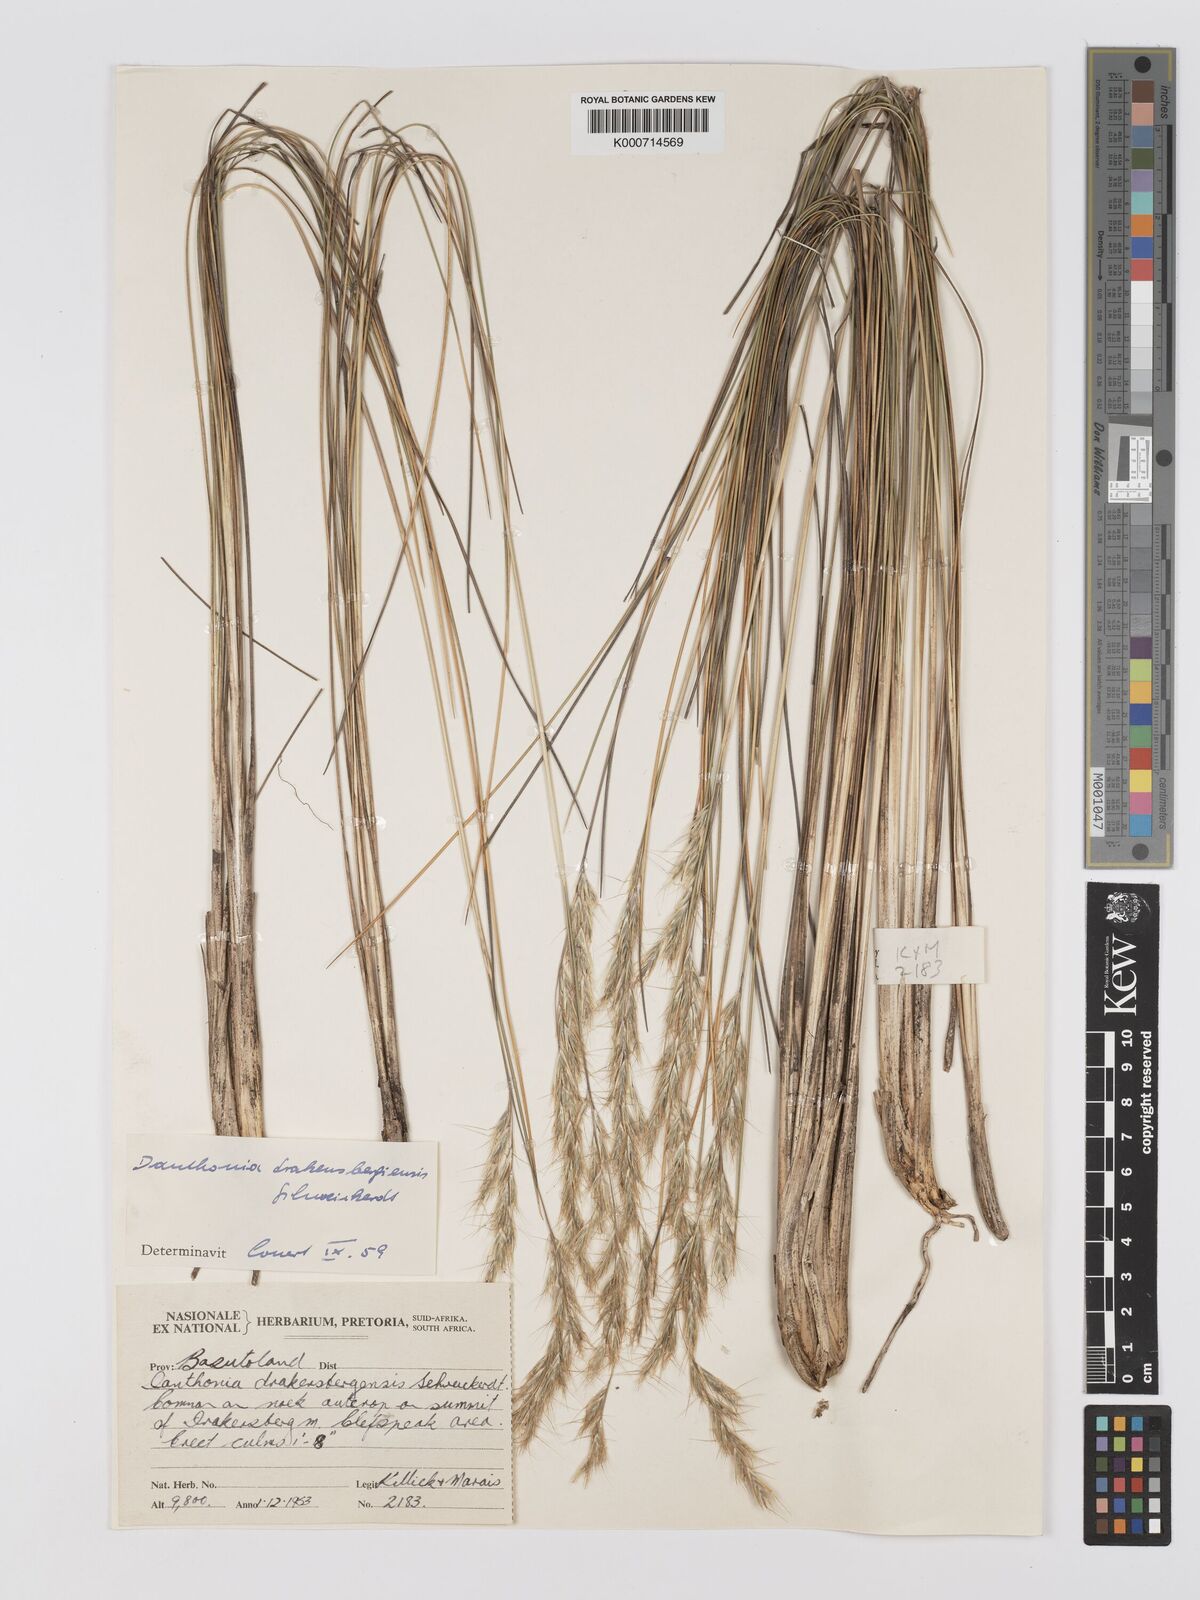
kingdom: Plantae
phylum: Tracheophyta
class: Liliopsida
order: Poales
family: Poaceae
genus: Rytidosperma
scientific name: Rytidosperma
